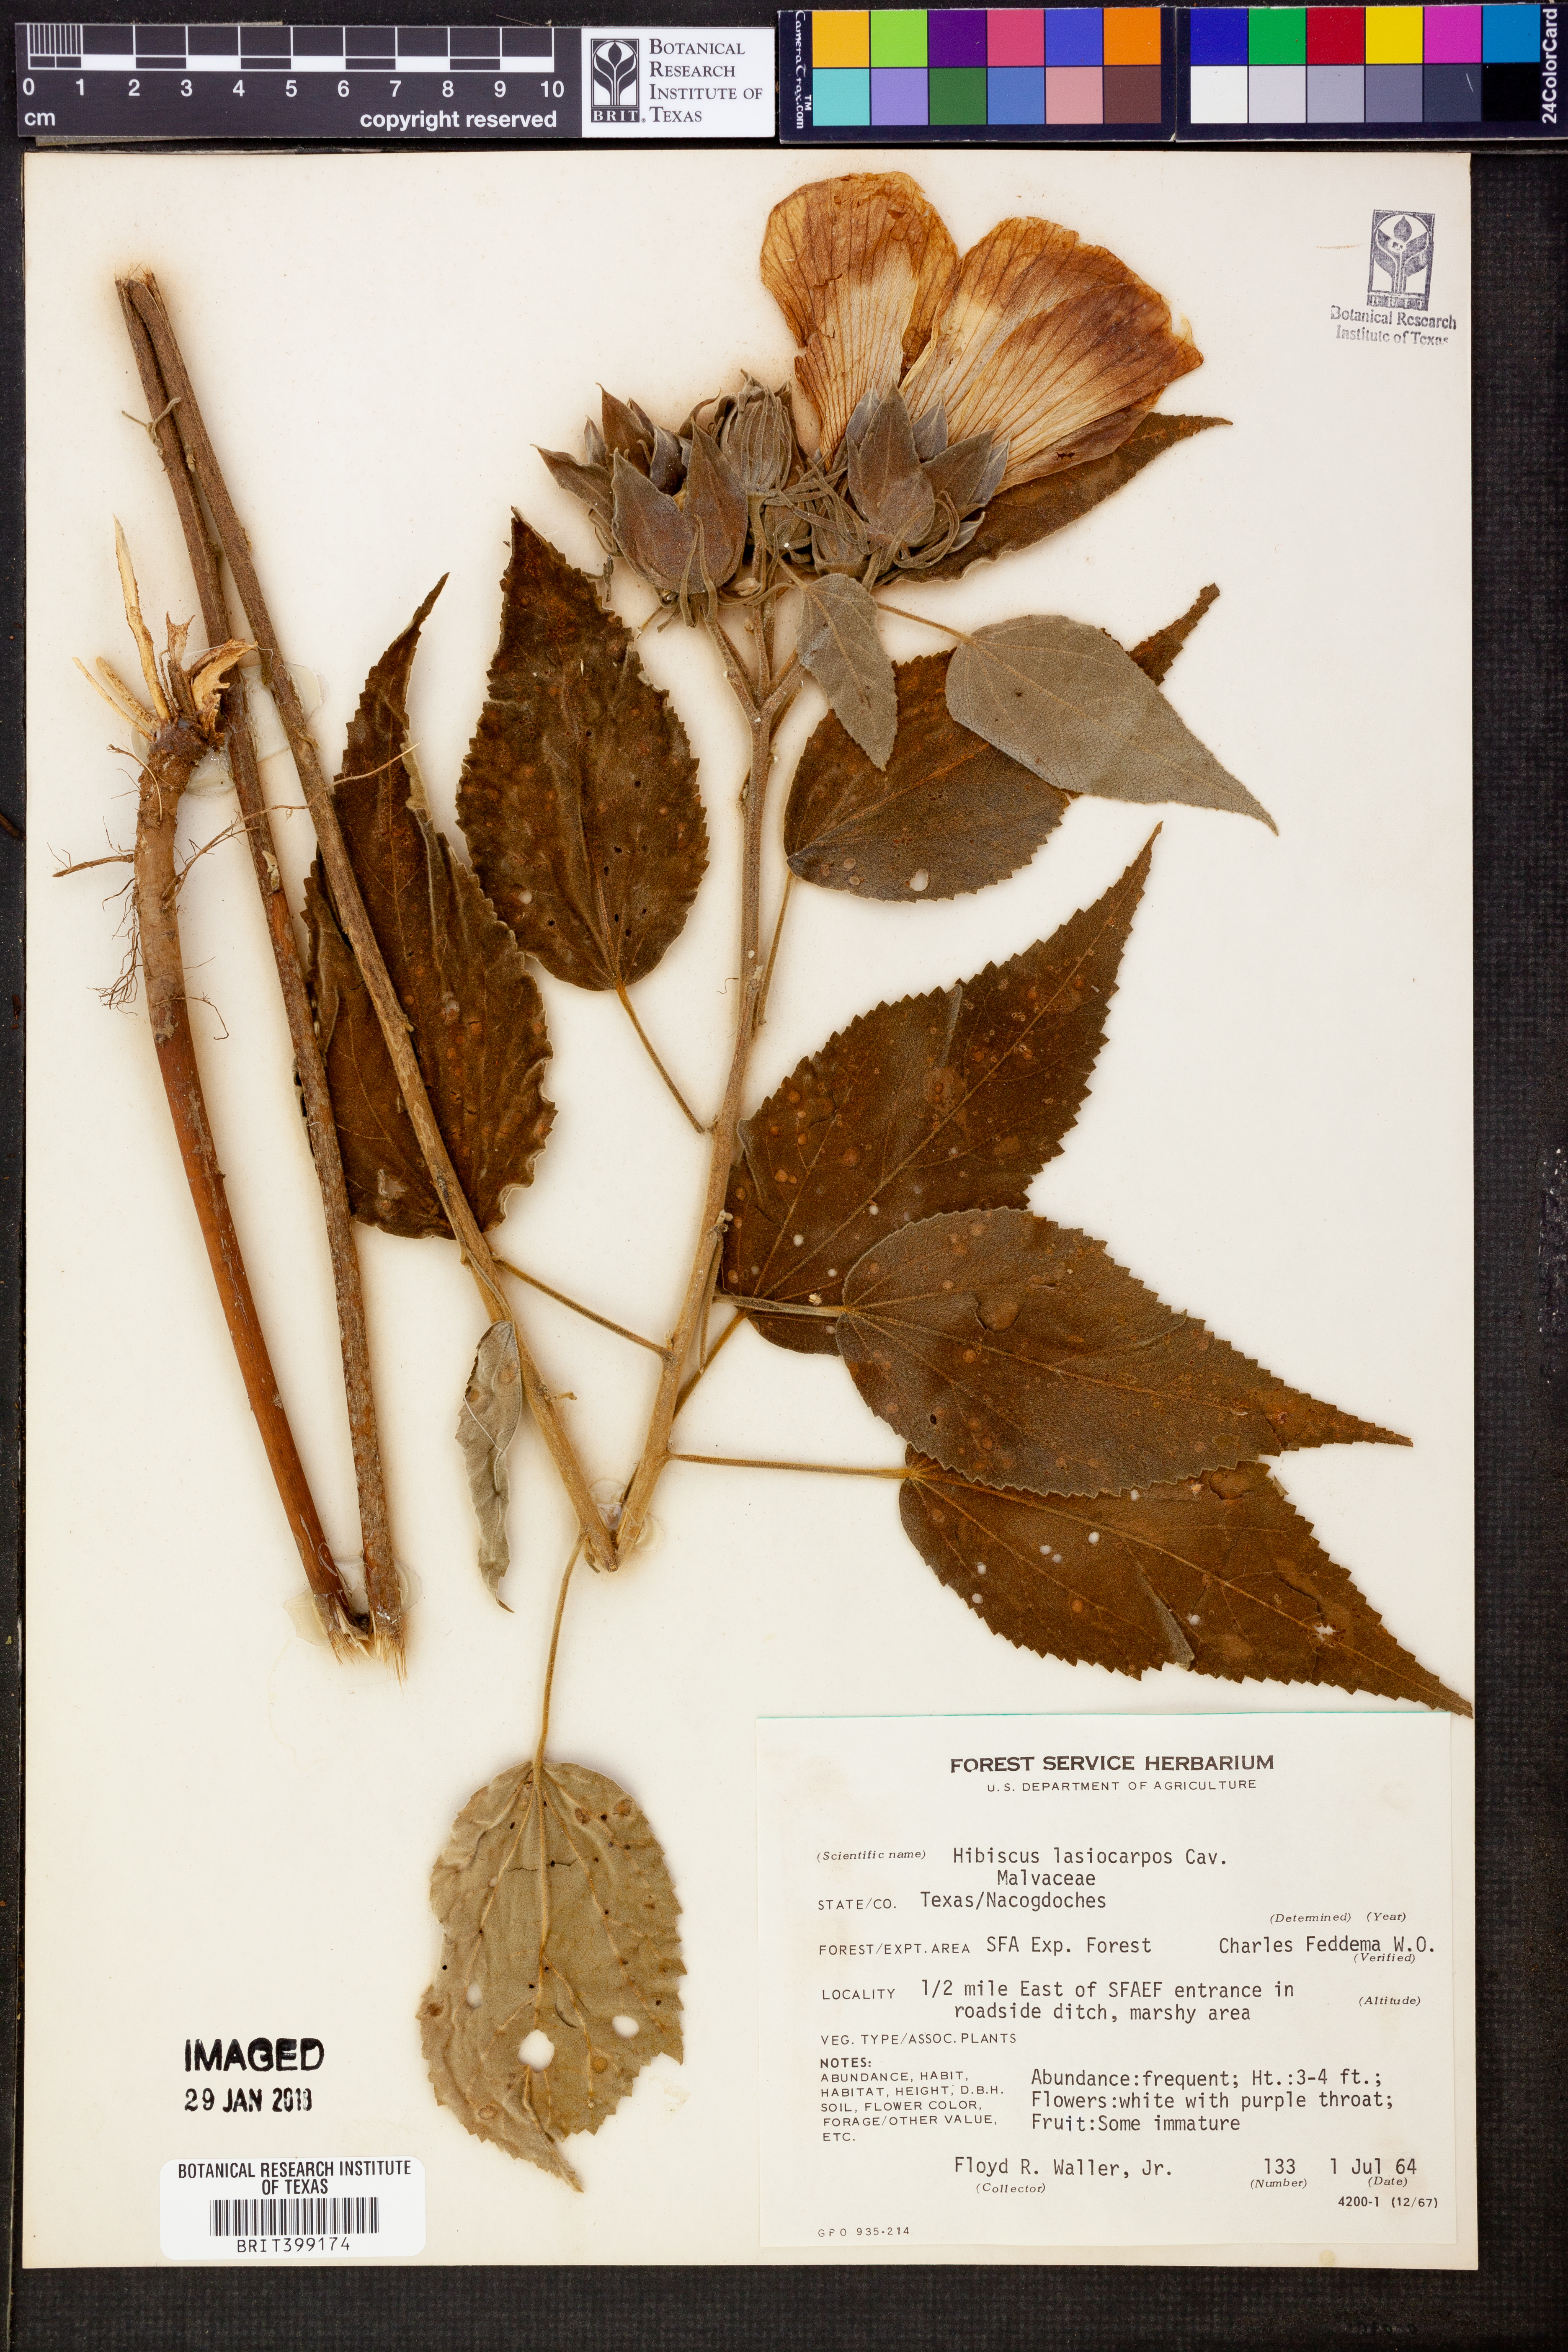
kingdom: Plantae
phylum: Tracheophyta
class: Magnoliopsida
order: Malvales
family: Malvaceae
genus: Hibiscus
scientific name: Hibiscus moscheutos
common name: Common rose-mallow
